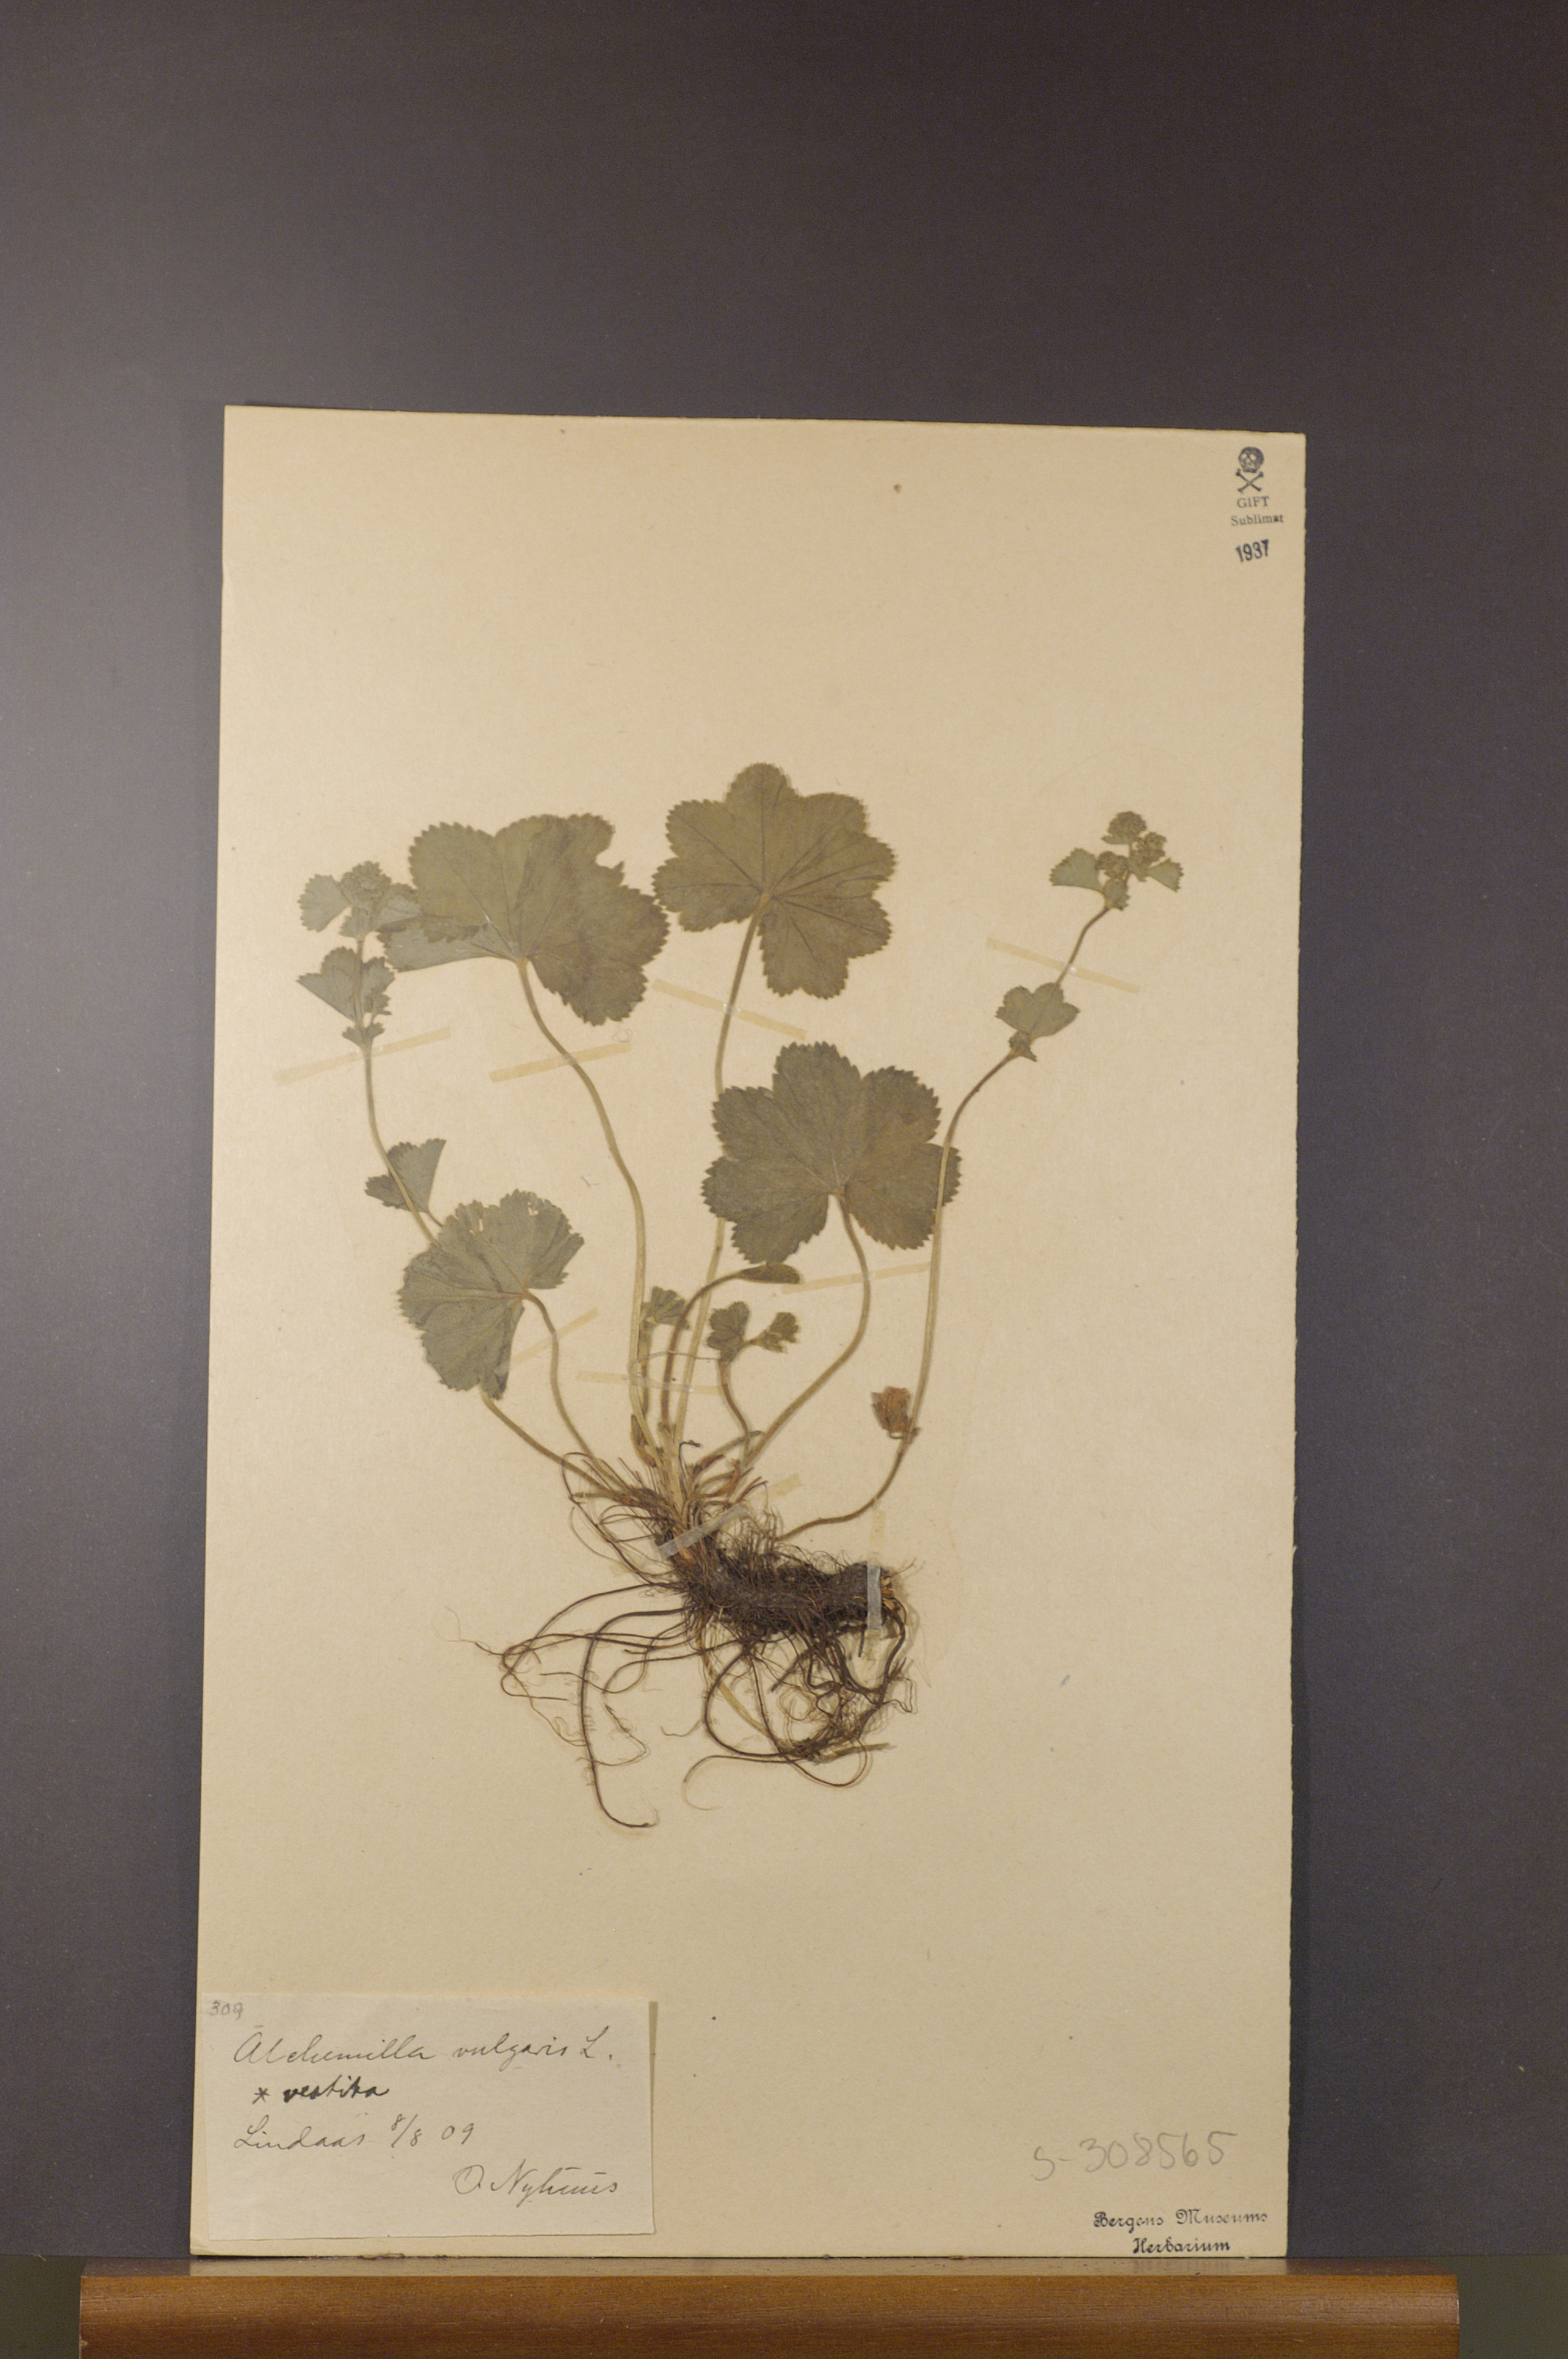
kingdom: Plantae
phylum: Tracheophyta
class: Magnoliopsida
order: Rosales
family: Rosaceae
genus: Alchemilla
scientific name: Alchemilla filicaulis
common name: Hairy lady's-mantle
